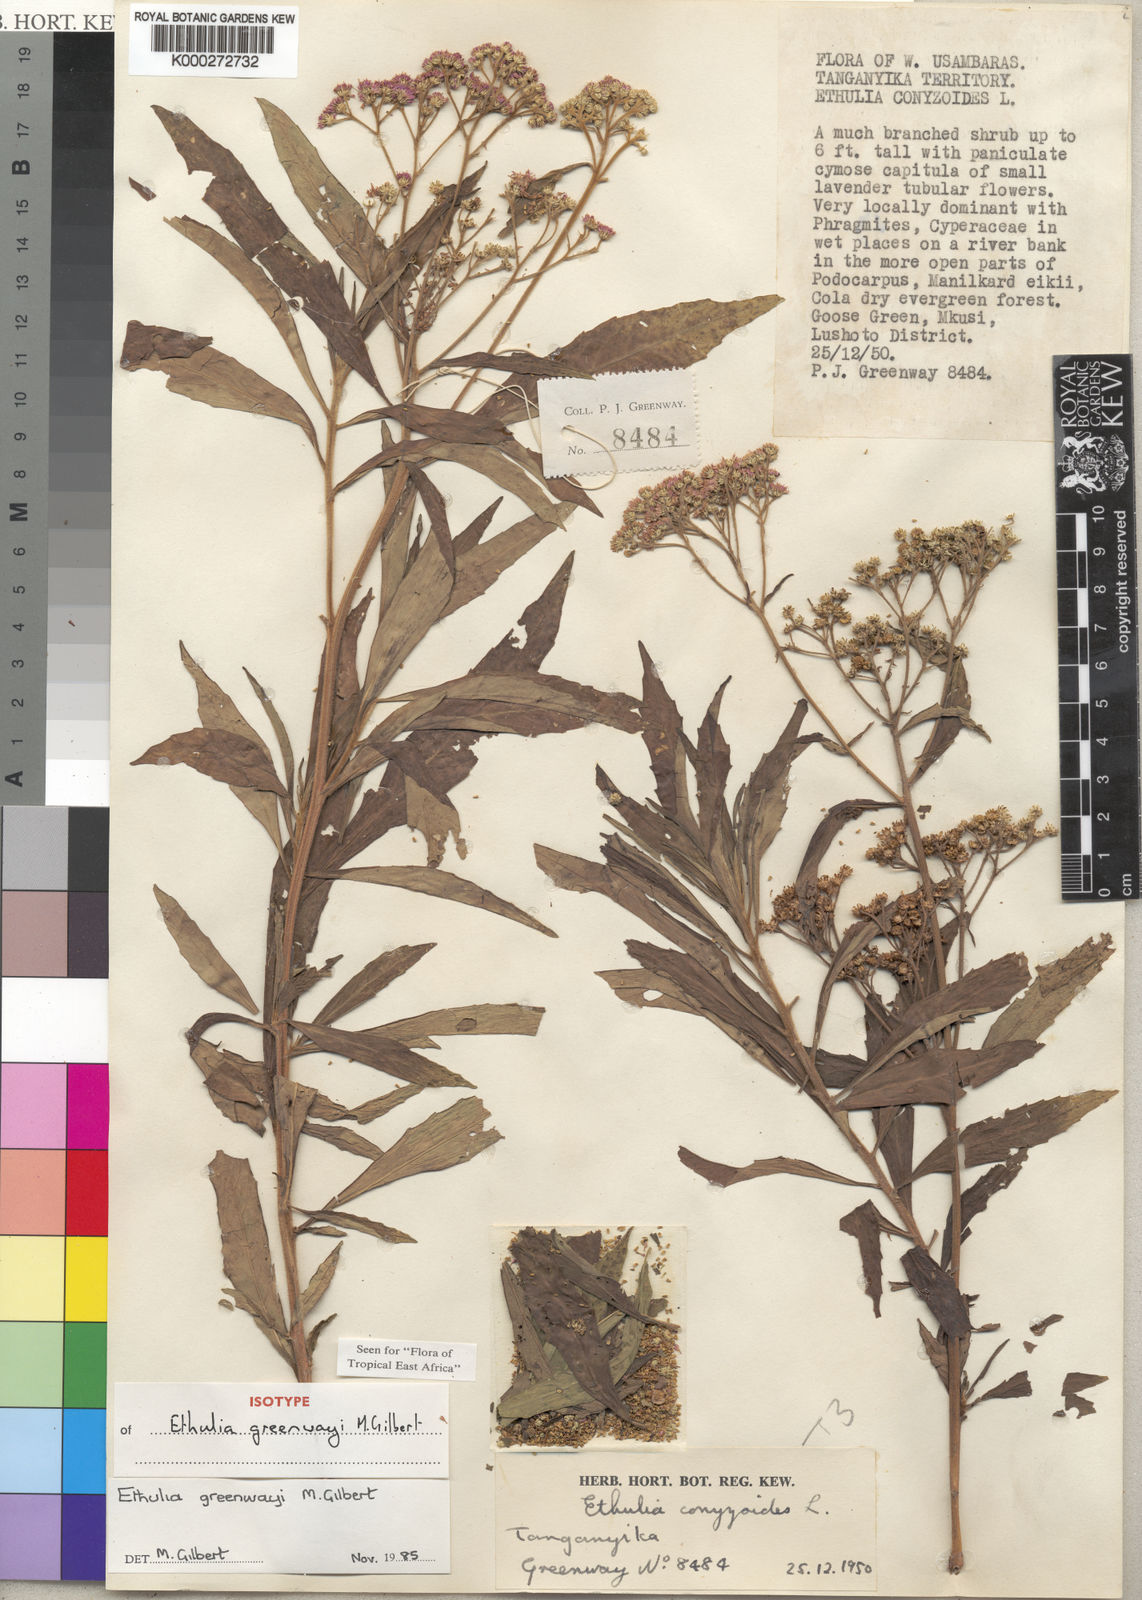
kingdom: Plantae
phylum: Tracheophyta
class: Magnoliopsida
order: Asterales
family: Asteraceae
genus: Ethulia
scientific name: Ethulia greenwayi
